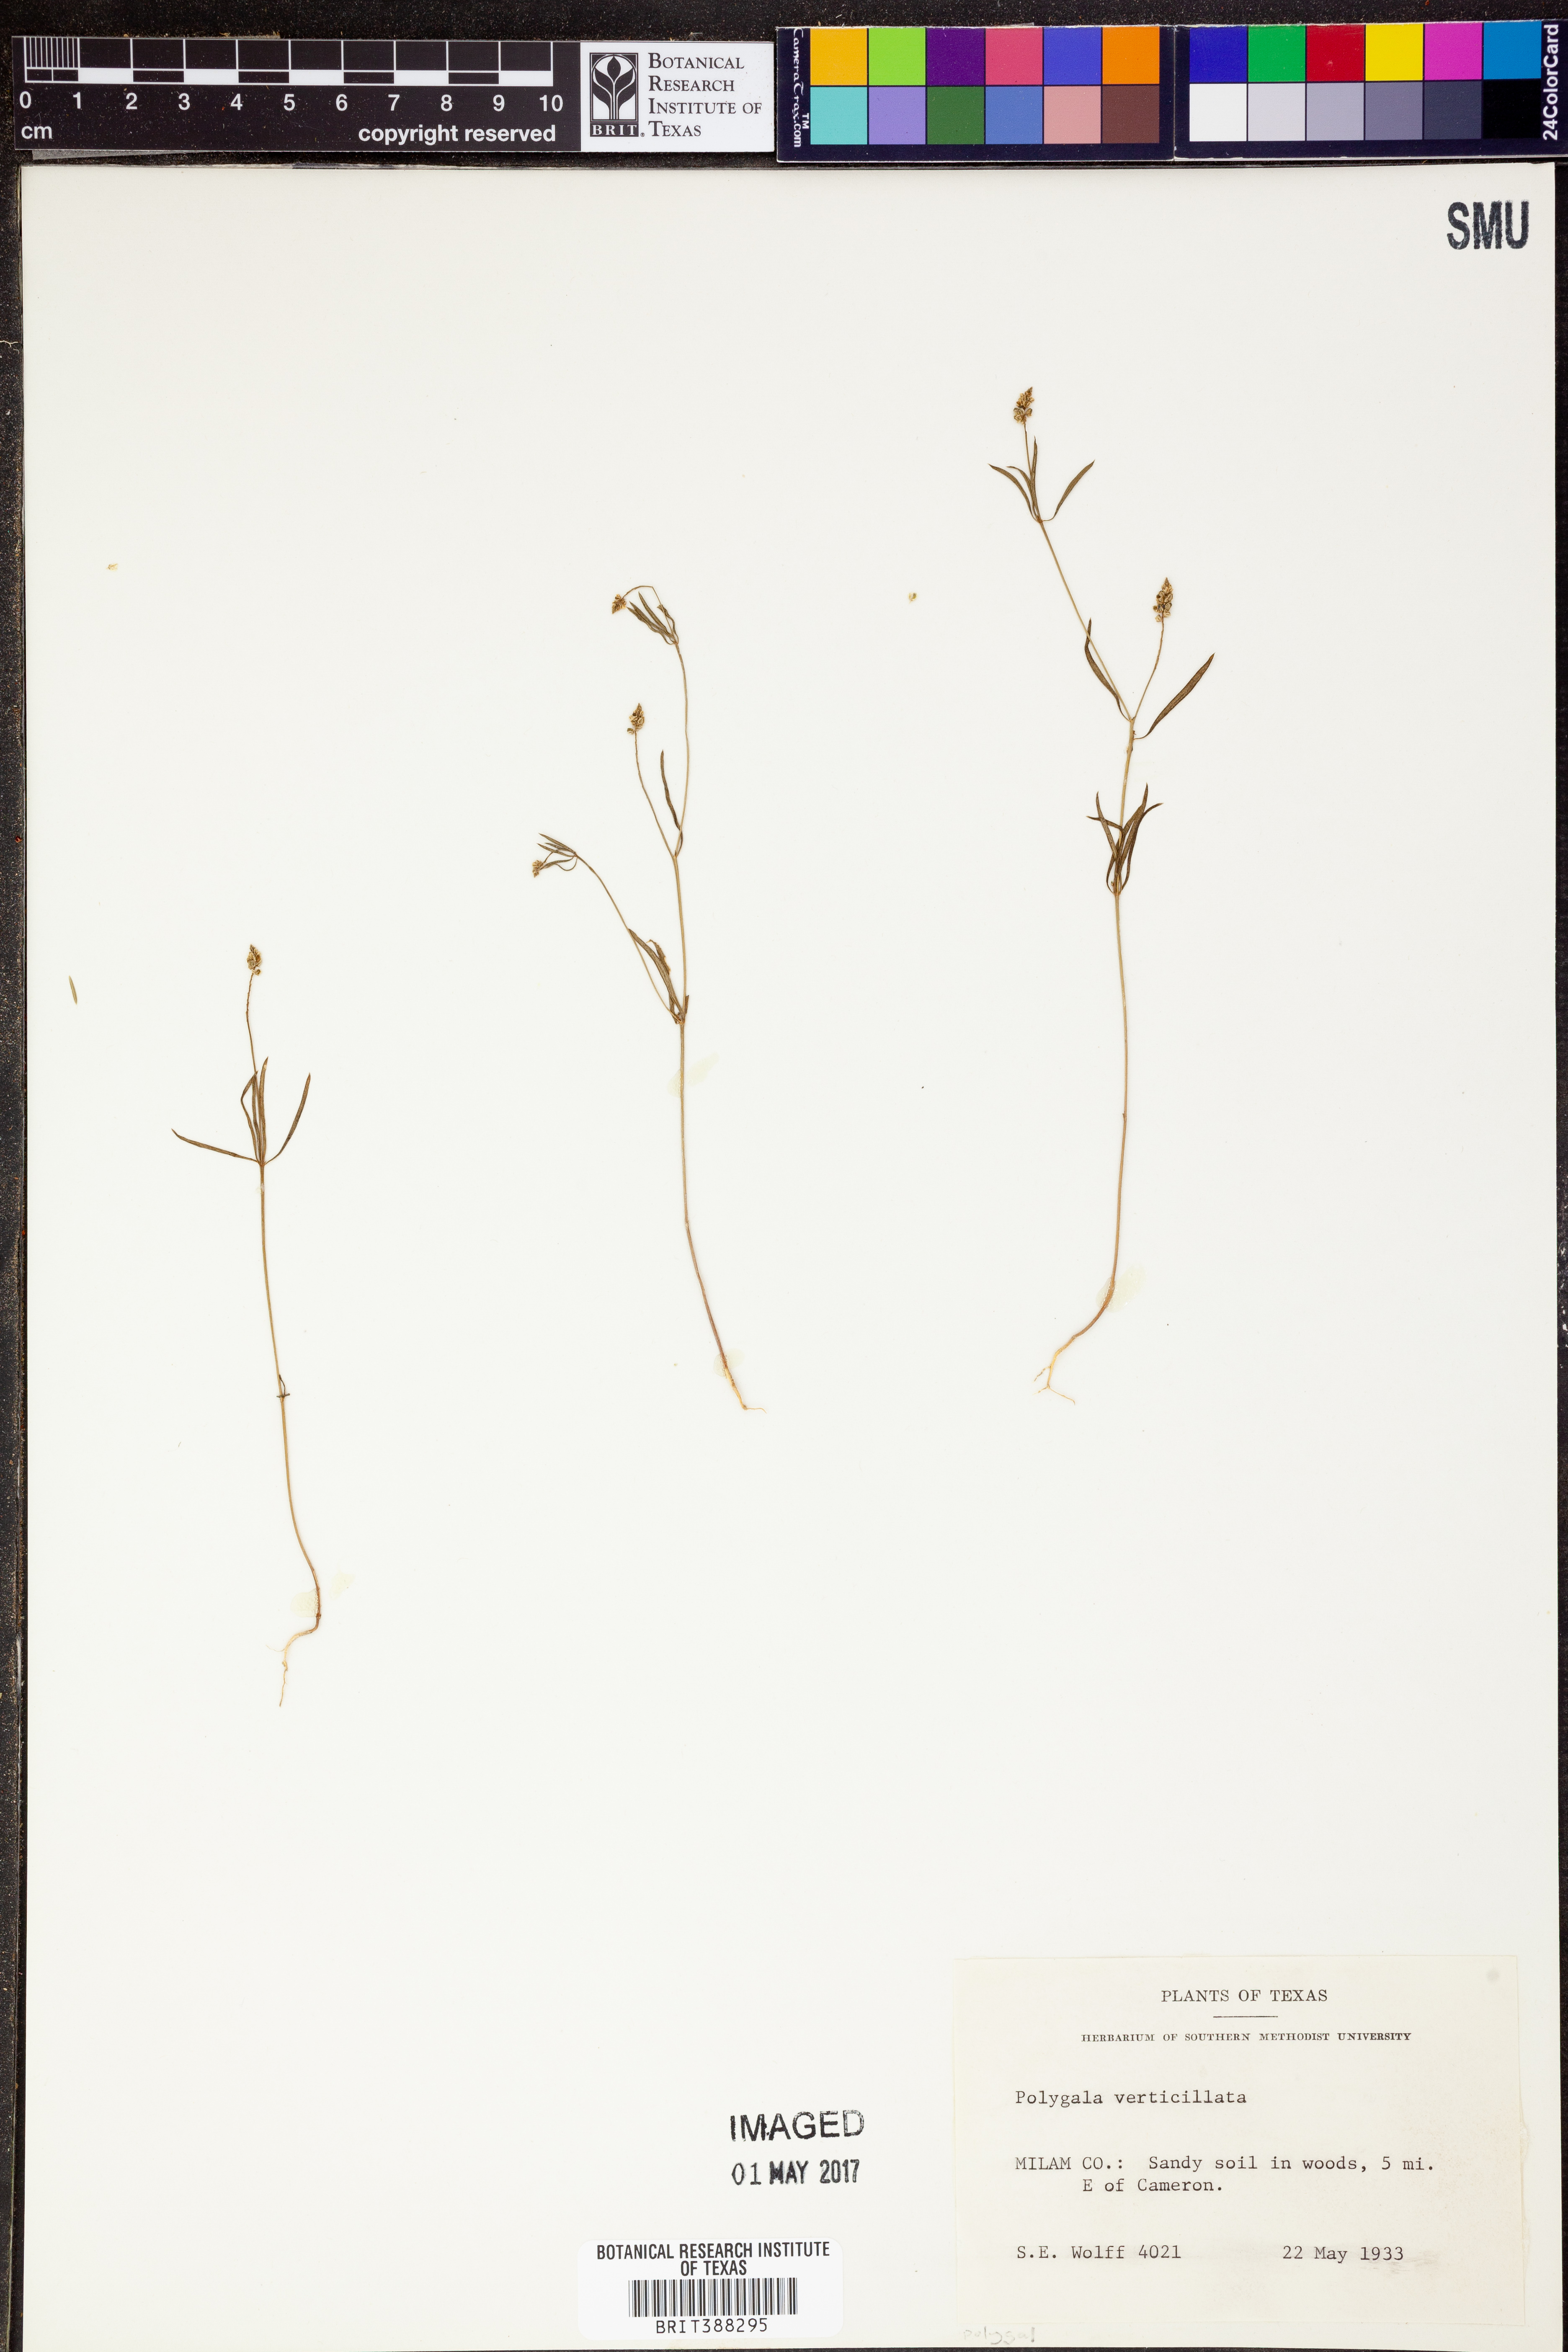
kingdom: Plantae
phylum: Tracheophyta
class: Magnoliopsida
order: Fabales
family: Polygalaceae
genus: Polygala
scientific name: Polygala verticillata
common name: Whorl milkwort
